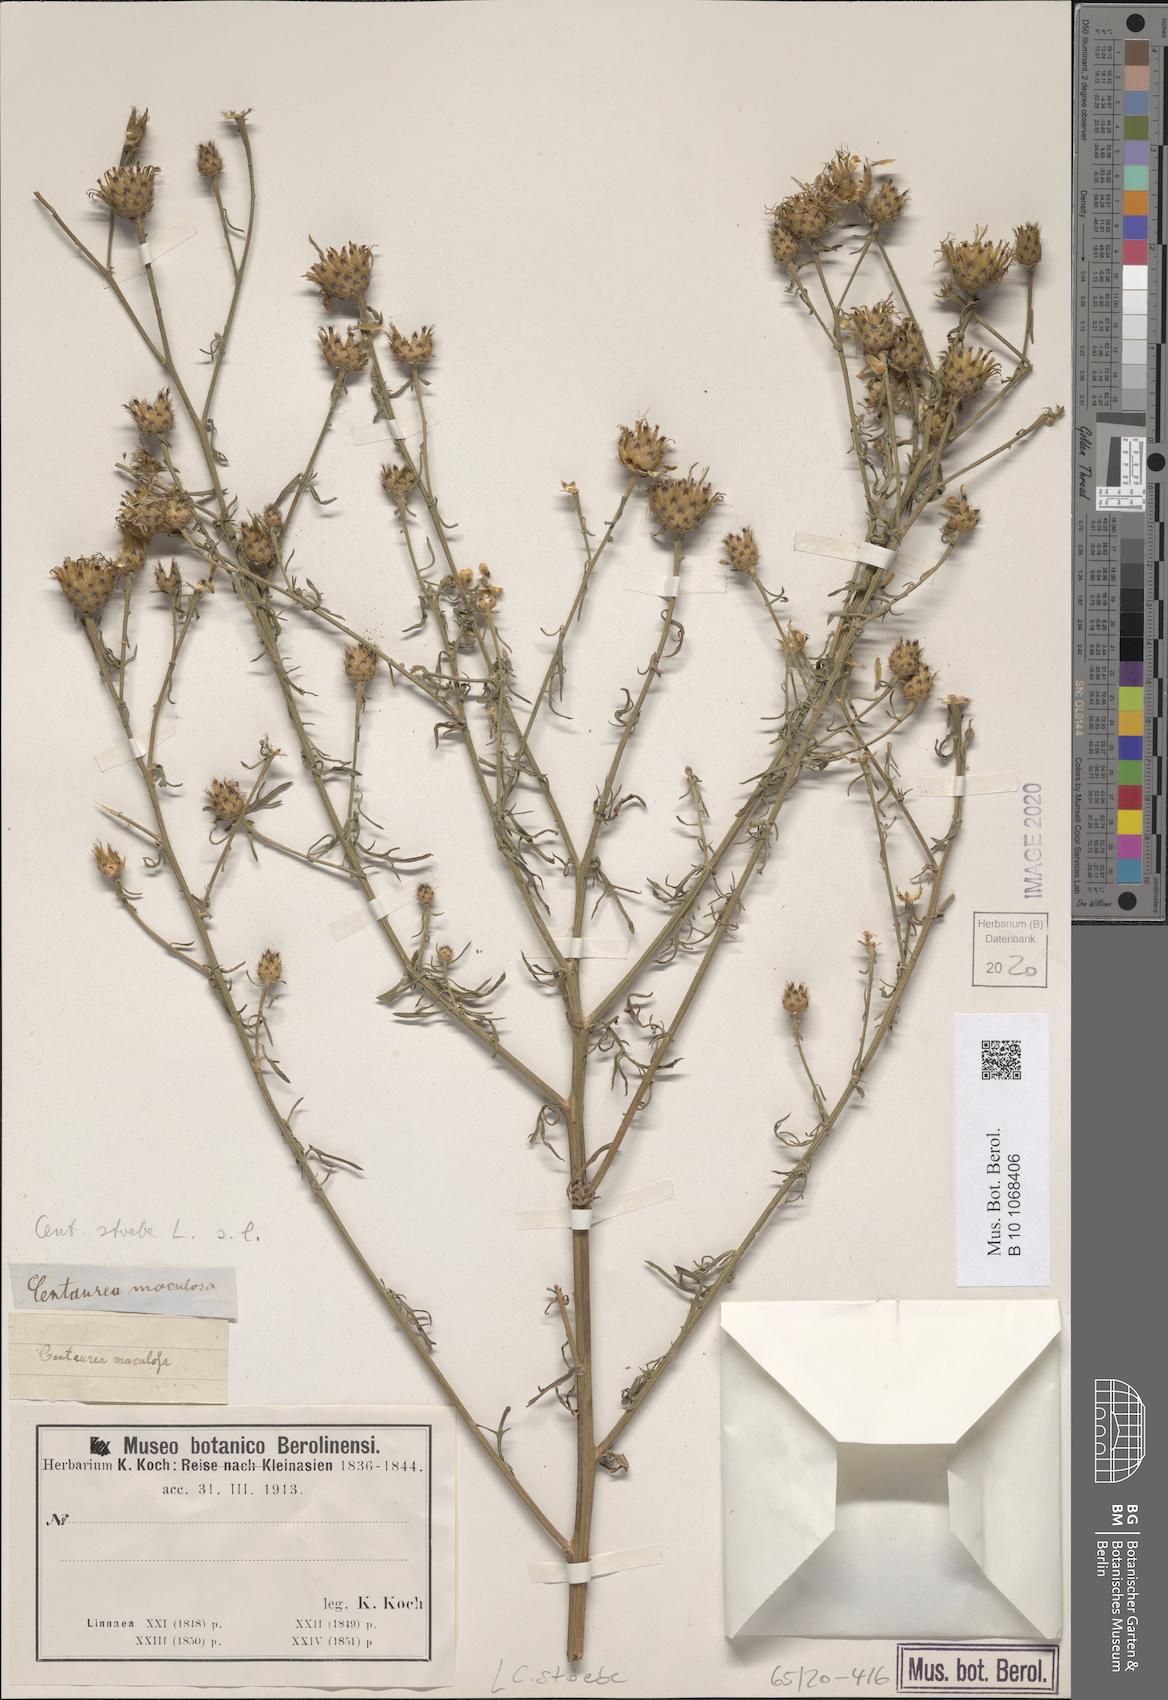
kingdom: Plantae
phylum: Tracheophyta
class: Magnoliopsida
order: Asterales
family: Asteraceae
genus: Centaurea
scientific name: Centaurea stoebe
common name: Spotted knapweed
